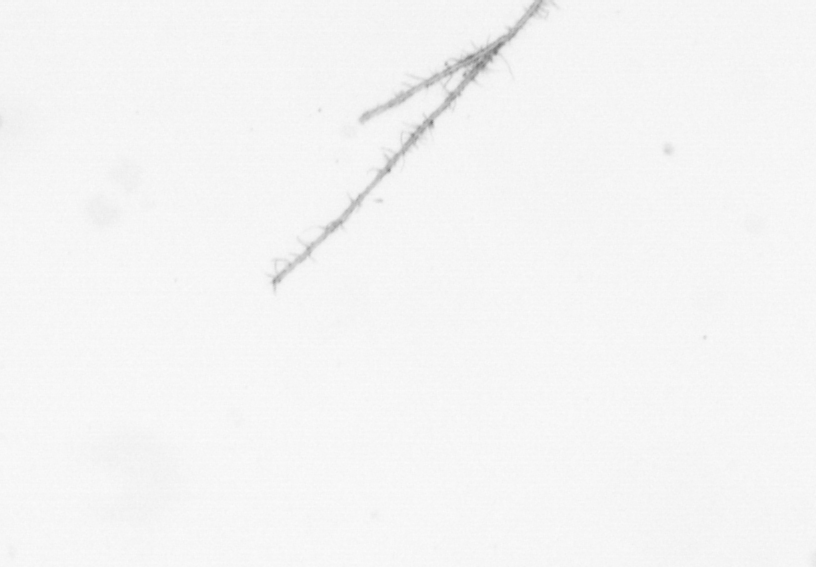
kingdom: Chromista
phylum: Ochrophyta
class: Bacillariophyceae
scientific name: Bacillariophyceae
